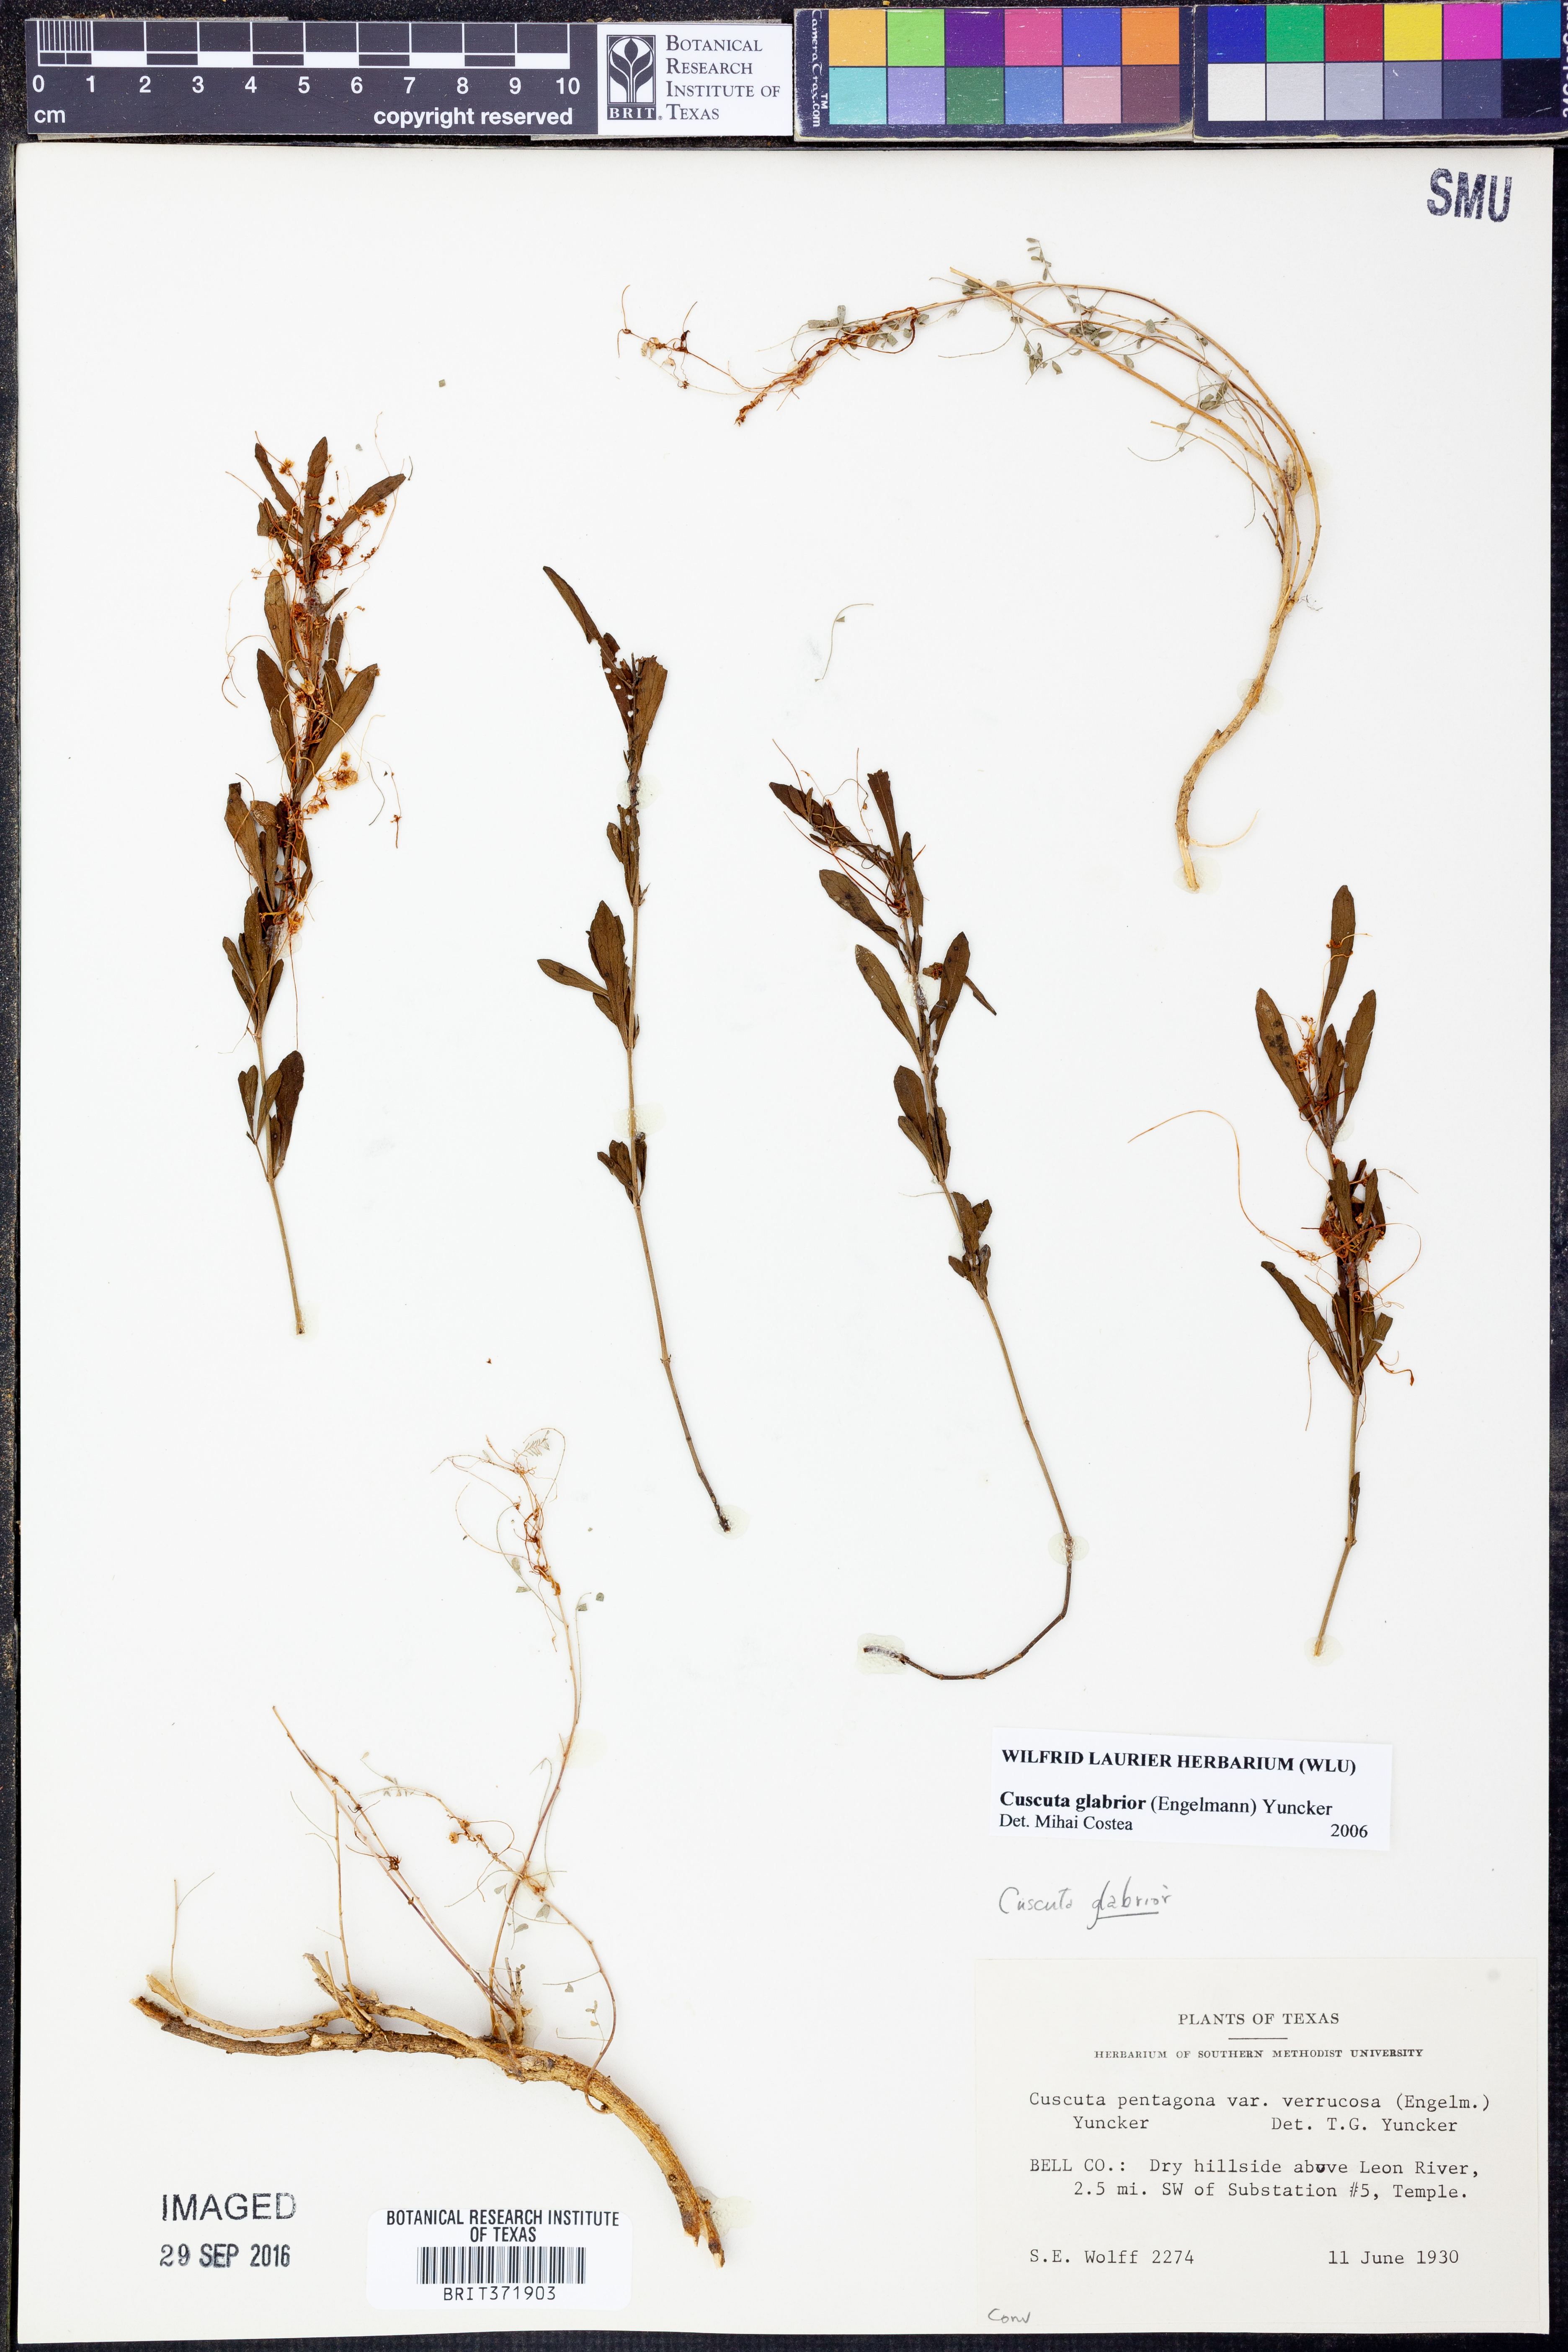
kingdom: Plantae
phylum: Tracheophyta
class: Magnoliopsida
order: Solanales
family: Convolvulaceae
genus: Cuscuta
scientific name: Cuscuta glabrior
